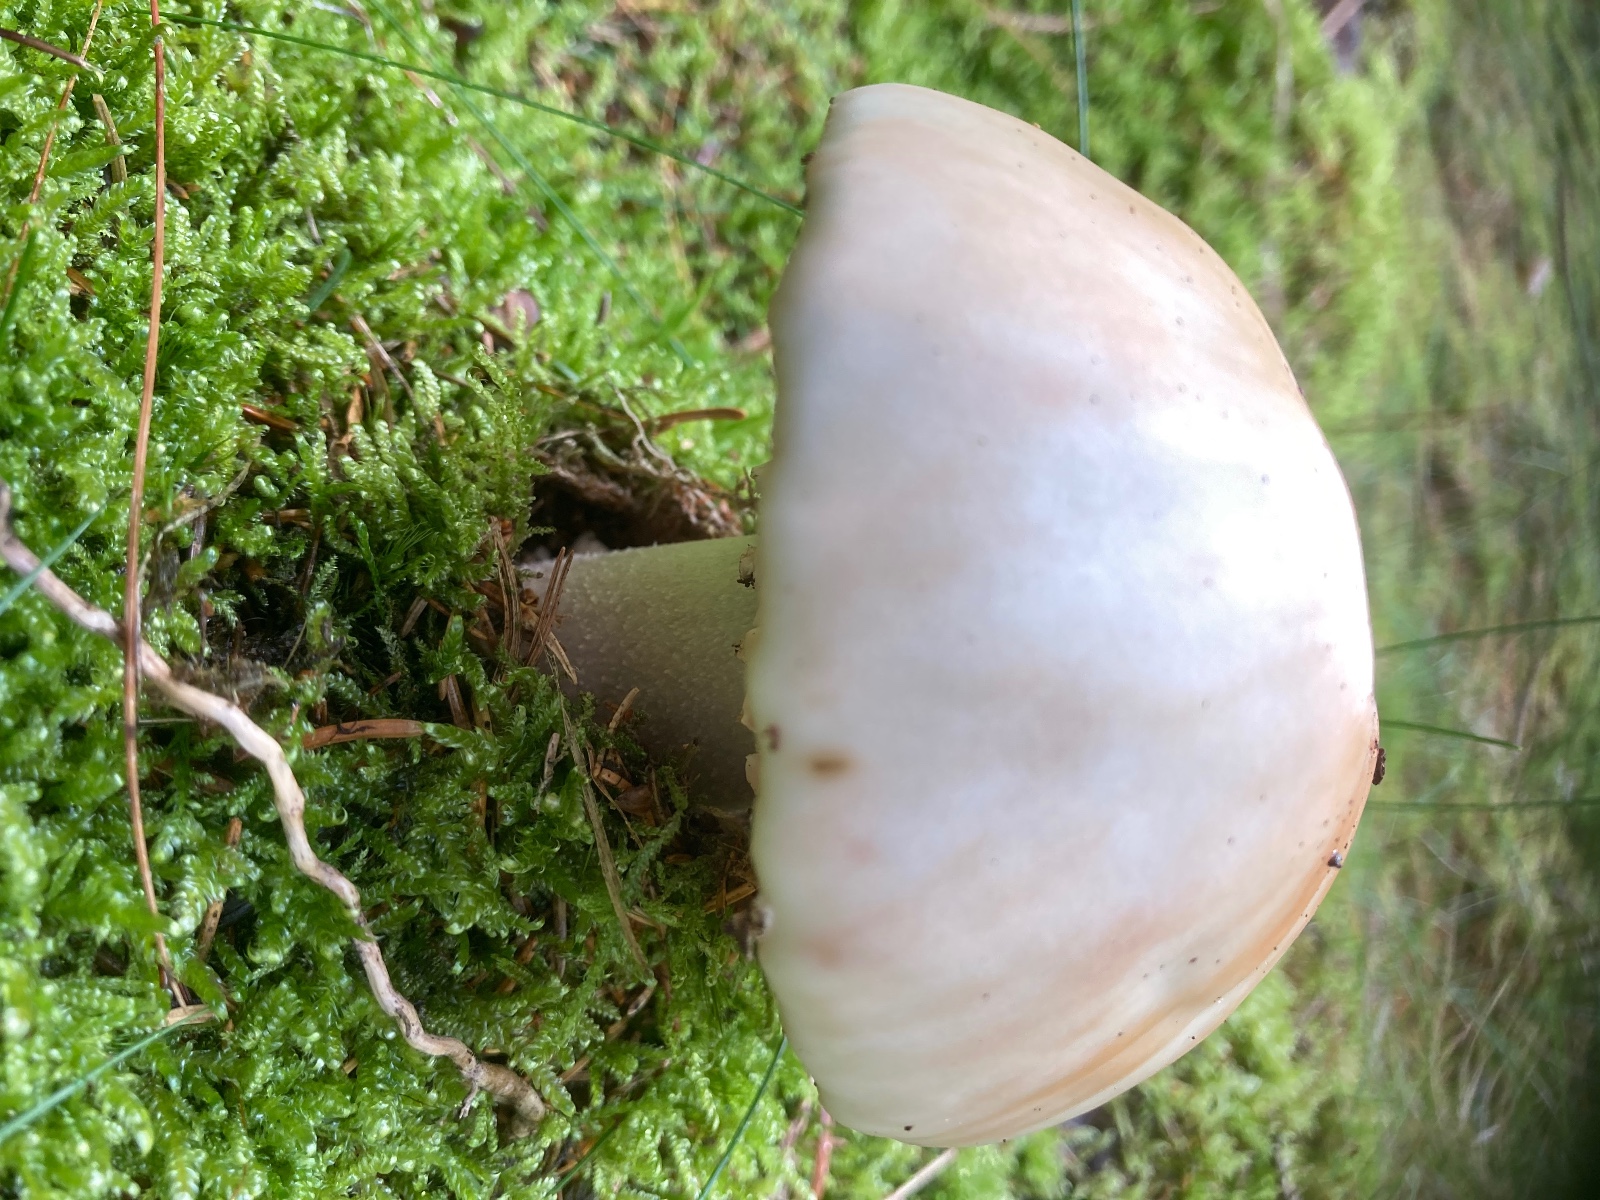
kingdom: Fungi
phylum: Basidiomycota
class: Agaricomycetes
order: Agaricales
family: Amanitaceae
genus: Amanita
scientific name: Amanita rubescens
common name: rødmende fluesvamp
